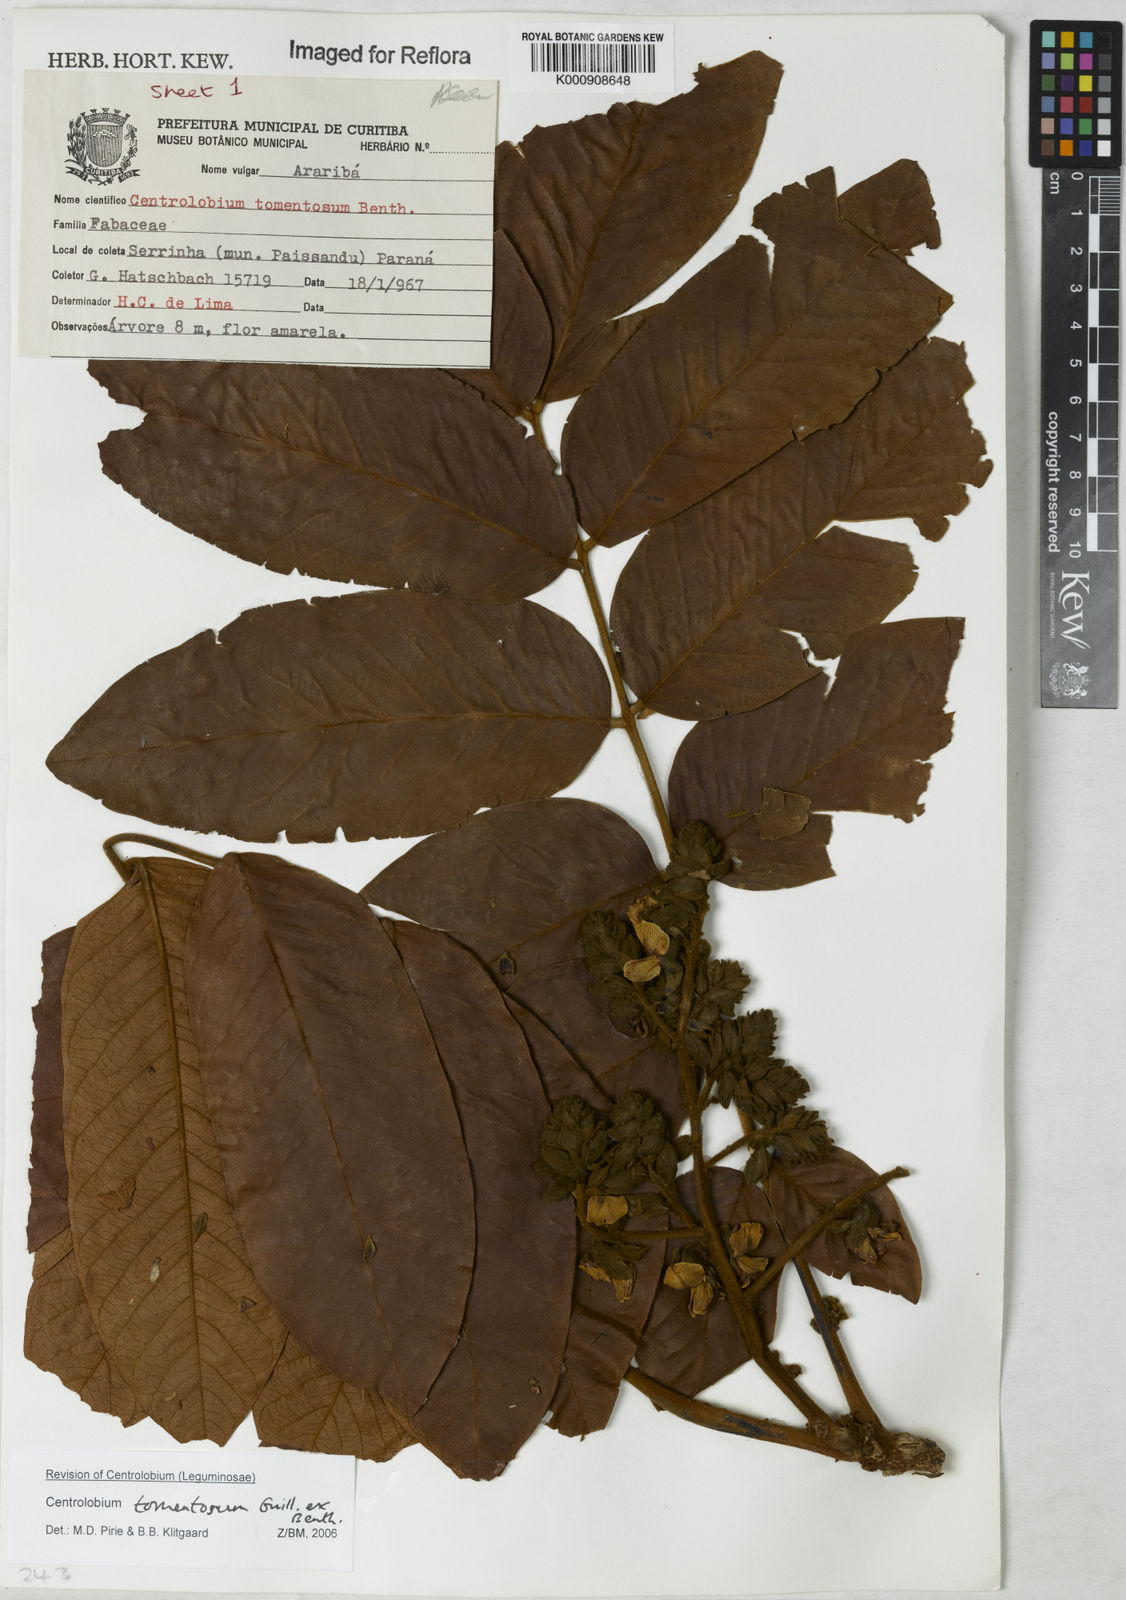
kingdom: Plantae
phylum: Tracheophyta
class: Magnoliopsida
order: Fabales
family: Fabaceae
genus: Centrolobium
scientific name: Centrolobium tomentosum
